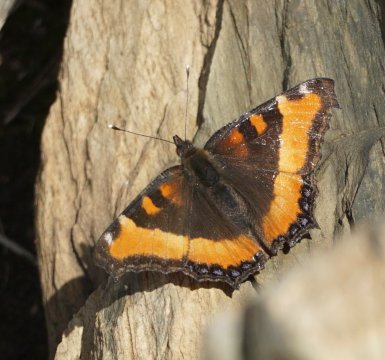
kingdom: Animalia
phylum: Arthropoda
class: Insecta
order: Lepidoptera
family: Nymphalidae
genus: Aglais
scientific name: Aglais milberti
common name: Milbert's Tortoiseshell
